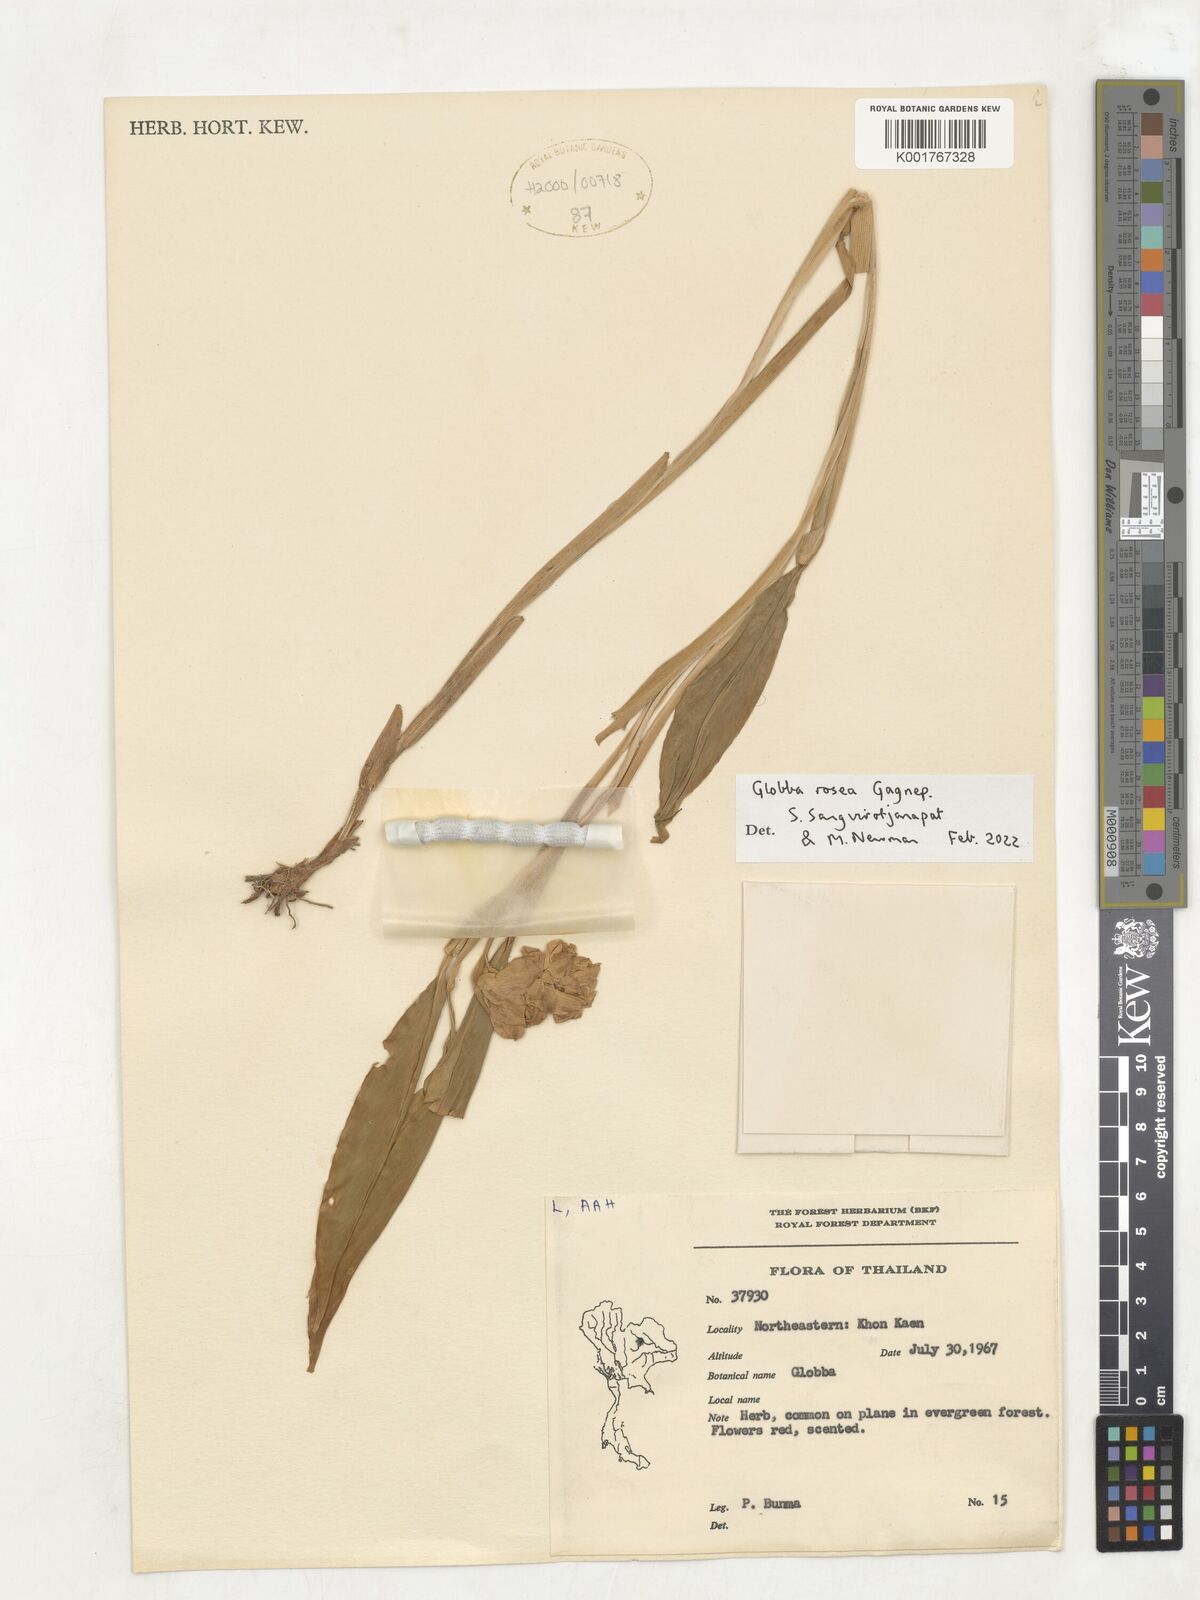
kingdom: Plantae
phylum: Tracheophyta
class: Liliopsida
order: Zingiberales
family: Zingiberaceae
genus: Globba
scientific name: Globba rosea
